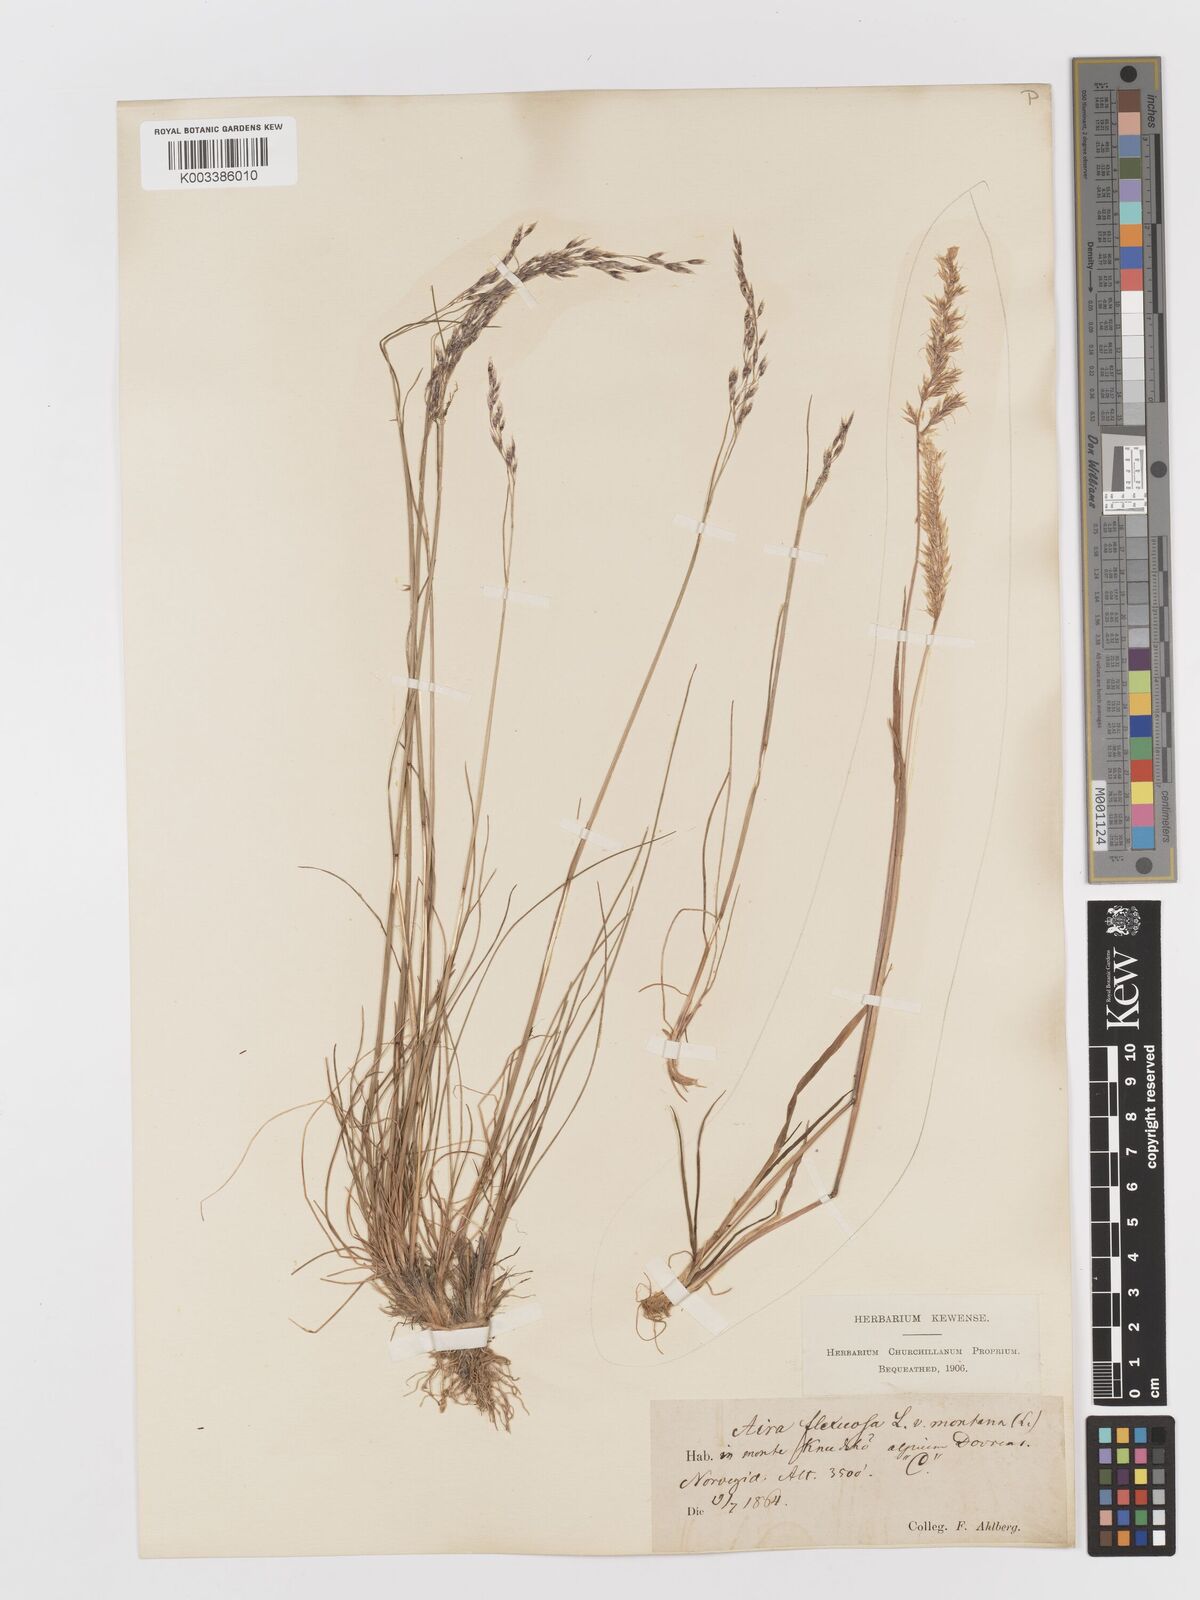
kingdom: Plantae
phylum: Tracheophyta
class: Liliopsida
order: Poales
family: Poaceae
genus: Avenella
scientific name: Avenella flexuosa
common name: Wavy hairgrass
